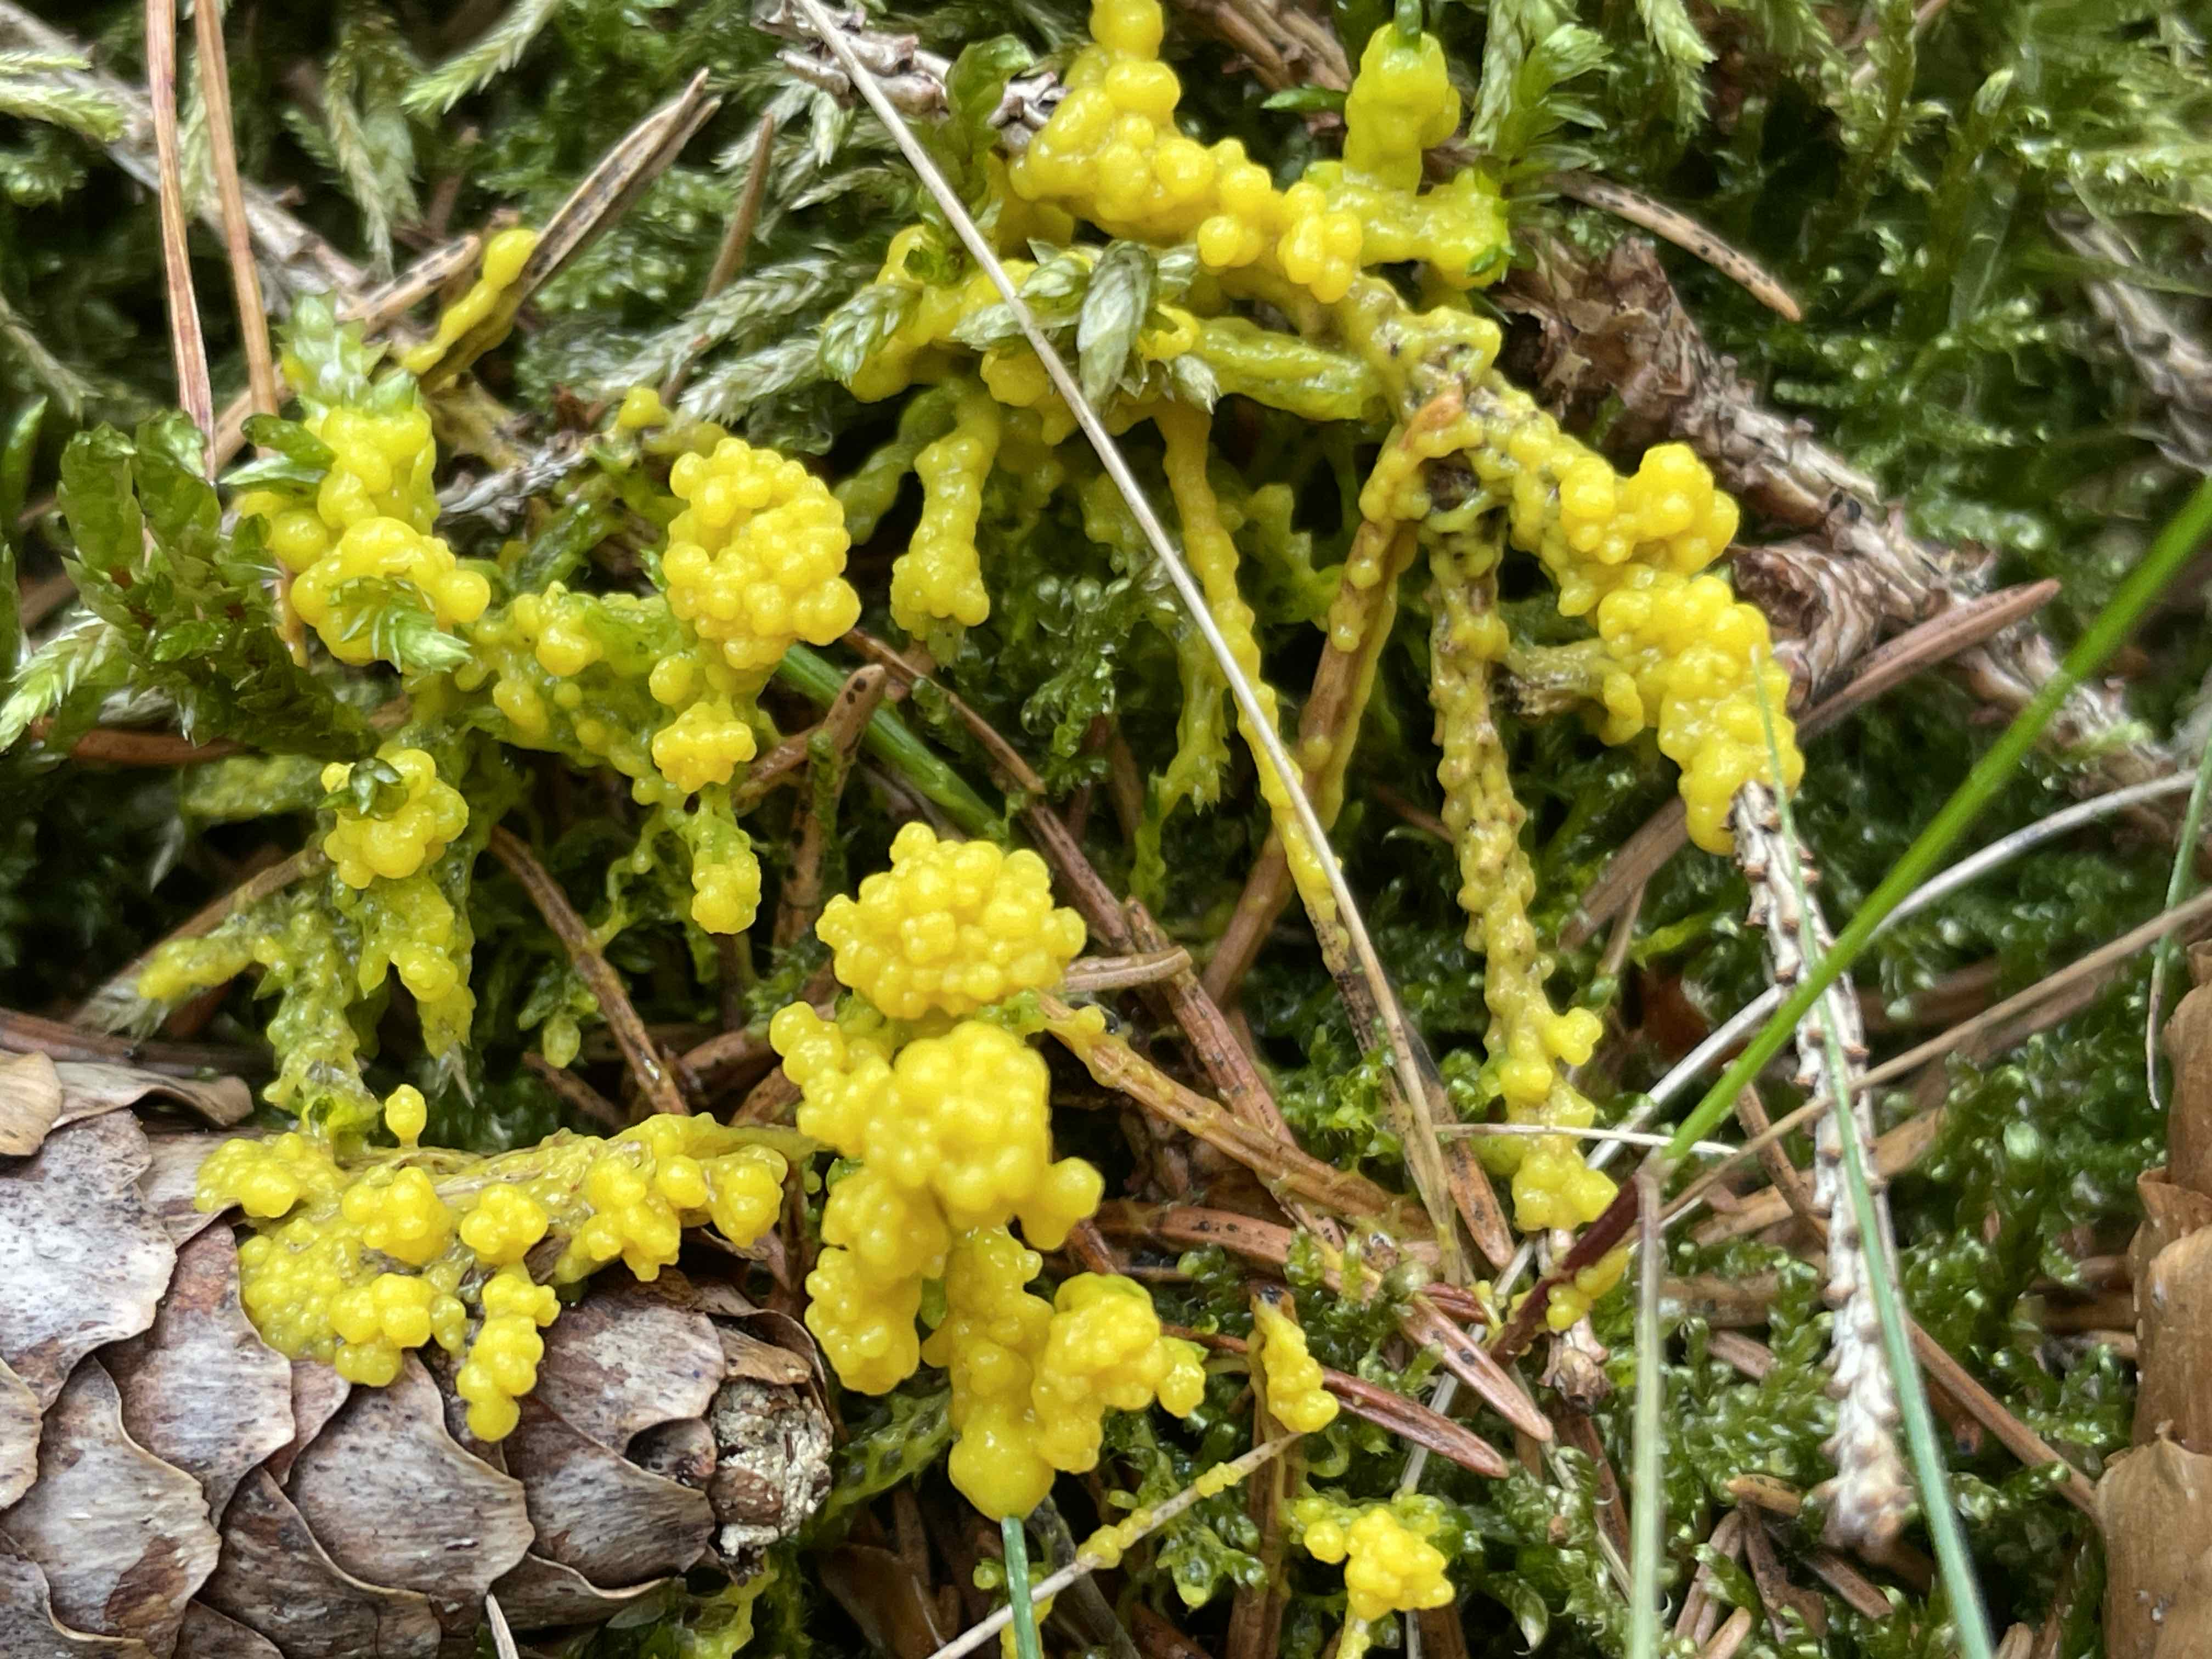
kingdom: Protozoa
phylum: Mycetozoa
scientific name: Mycetozoa
